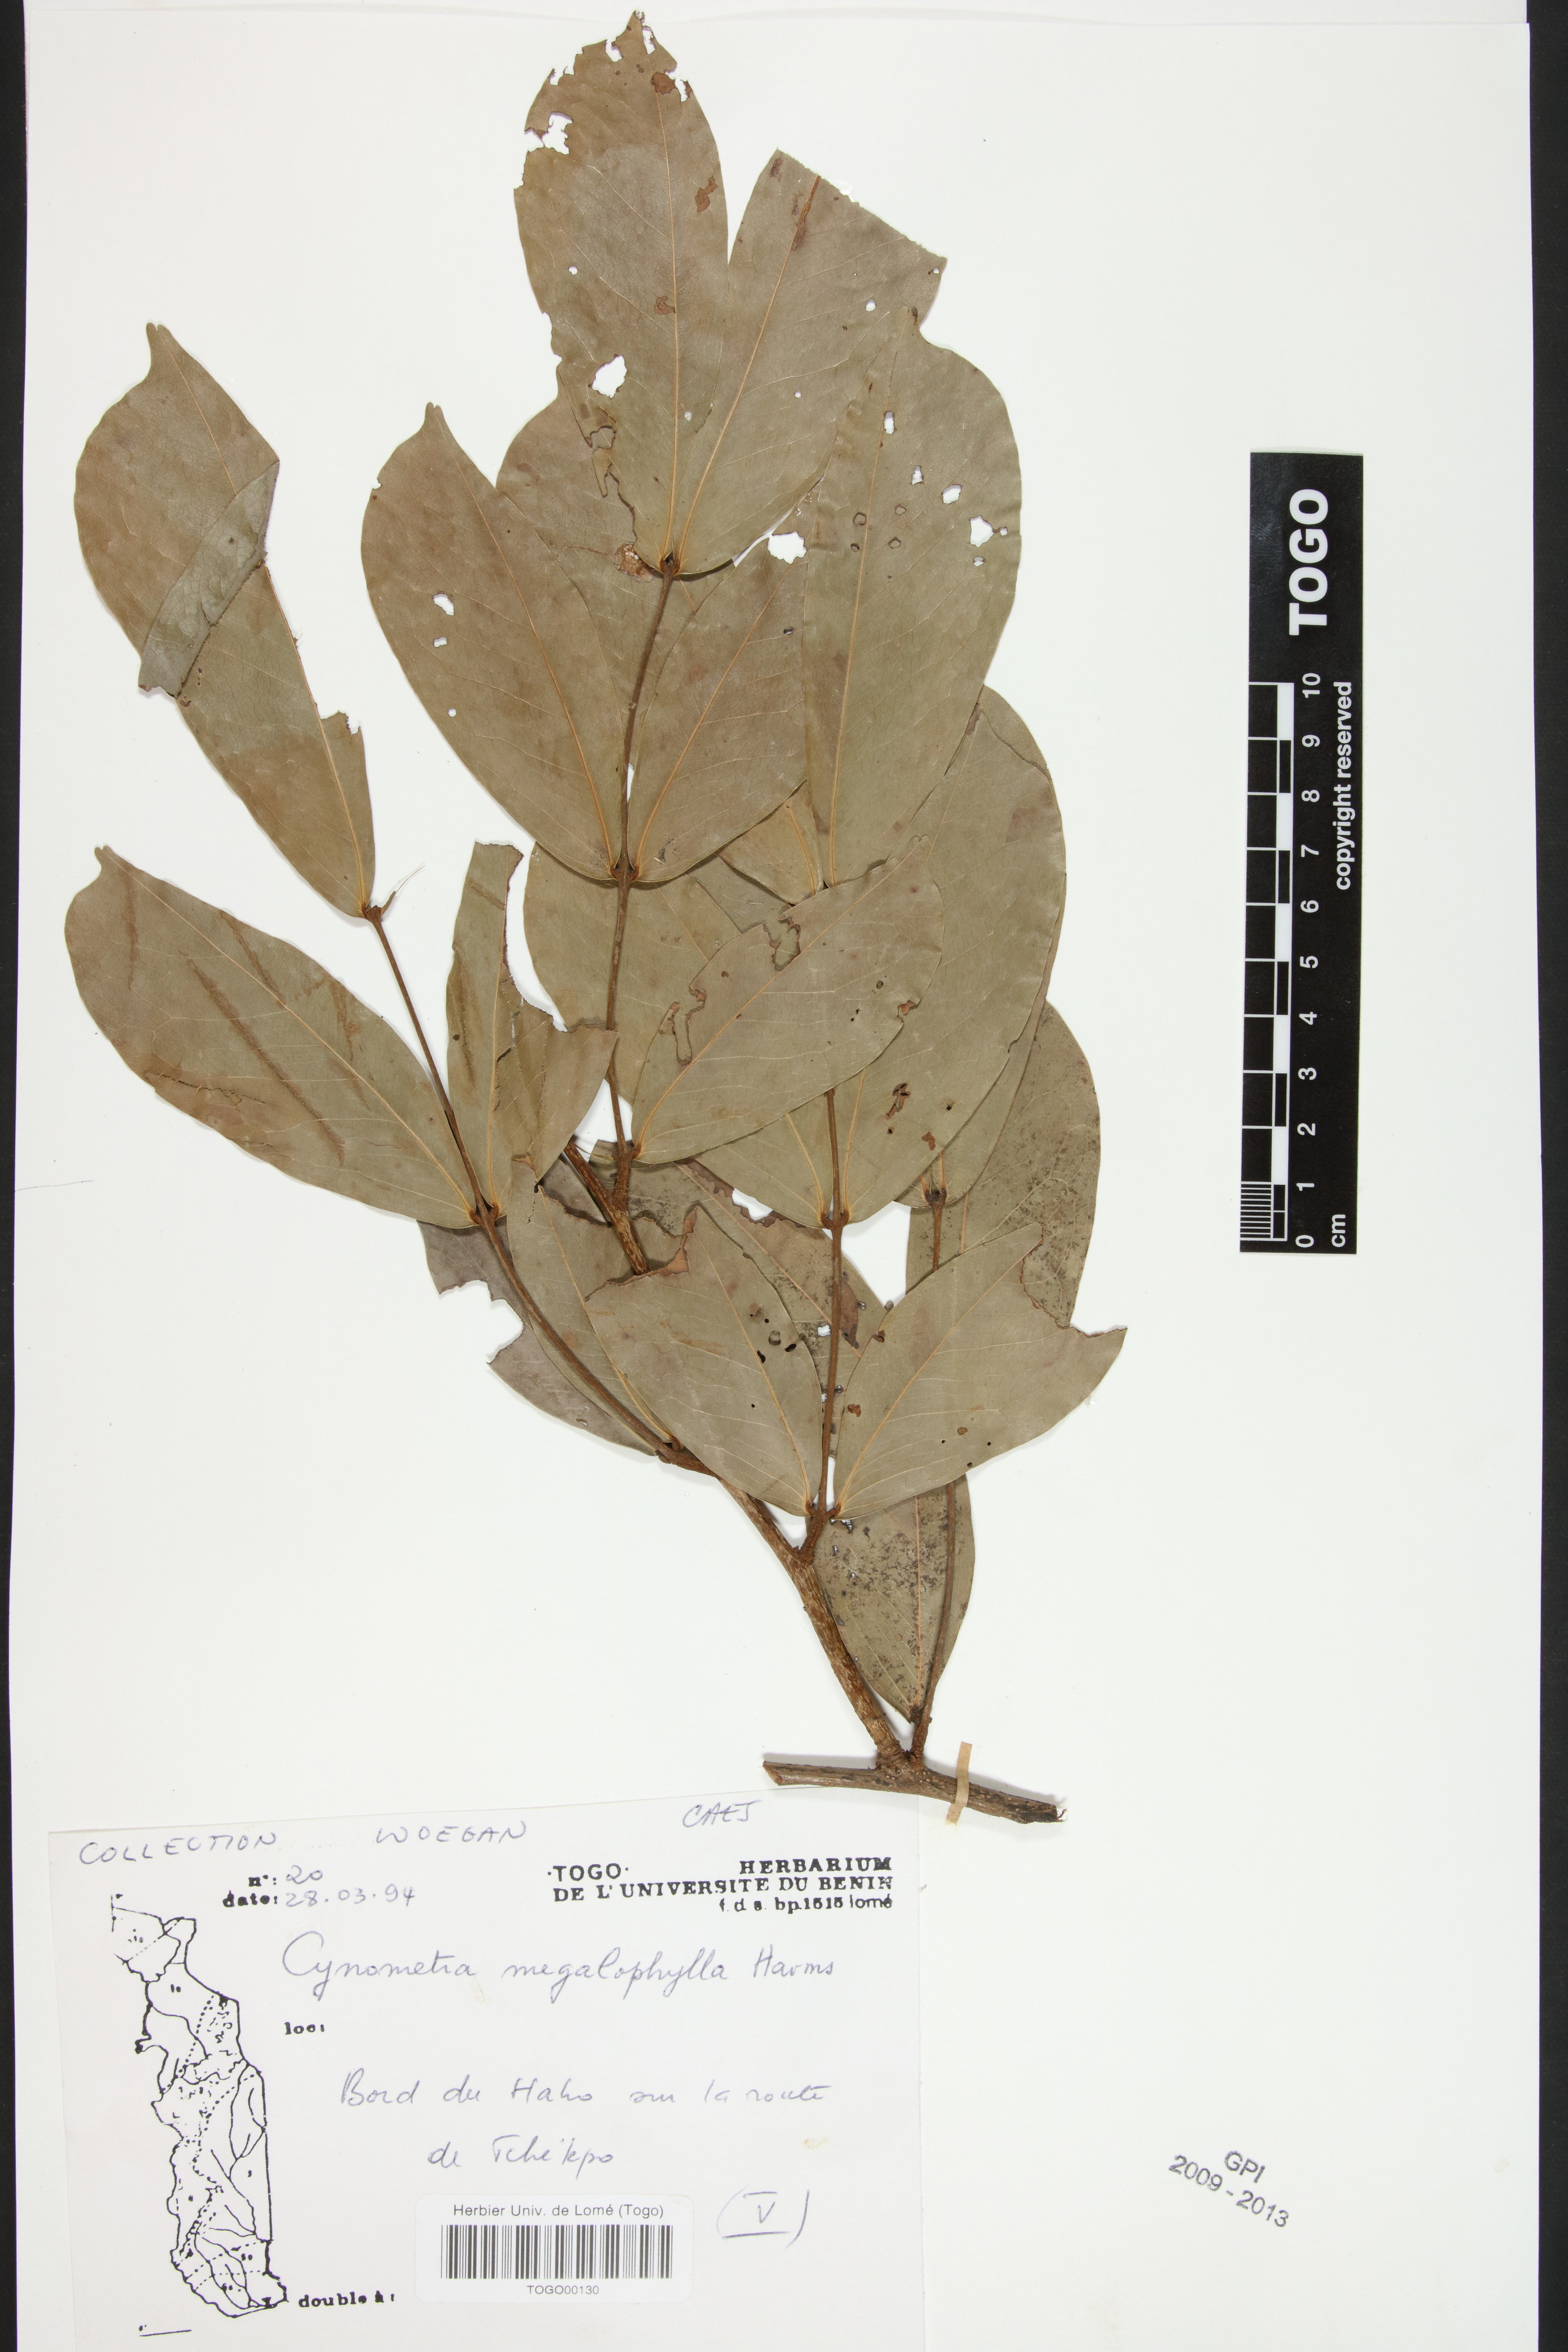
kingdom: Plantae
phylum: Tracheophyta
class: Magnoliopsida
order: Fabales
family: Fabaceae
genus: Cynometra
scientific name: Cynometra megalophylla
